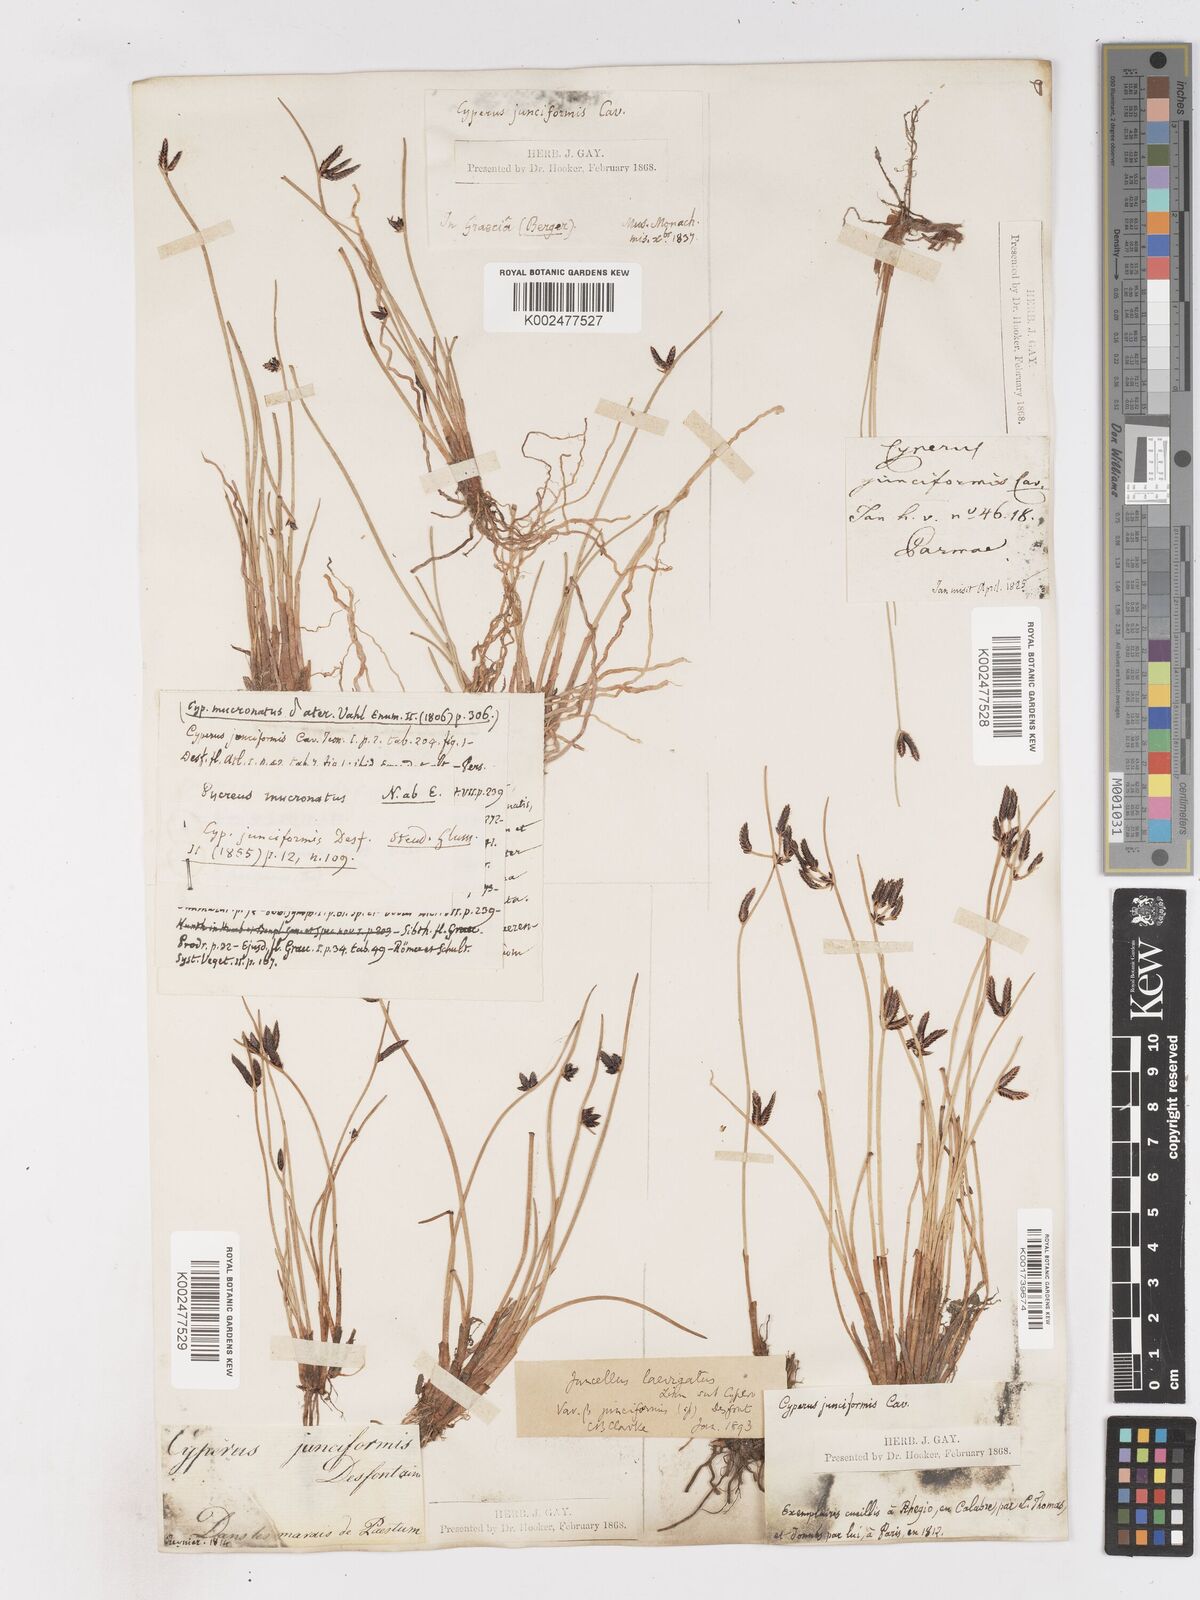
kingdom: Plantae
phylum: Tracheophyta
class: Liliopsida
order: Poales
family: Cyperaceae
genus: Cyperus
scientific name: Cyperus laevigatus
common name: Smooth flat sedge
